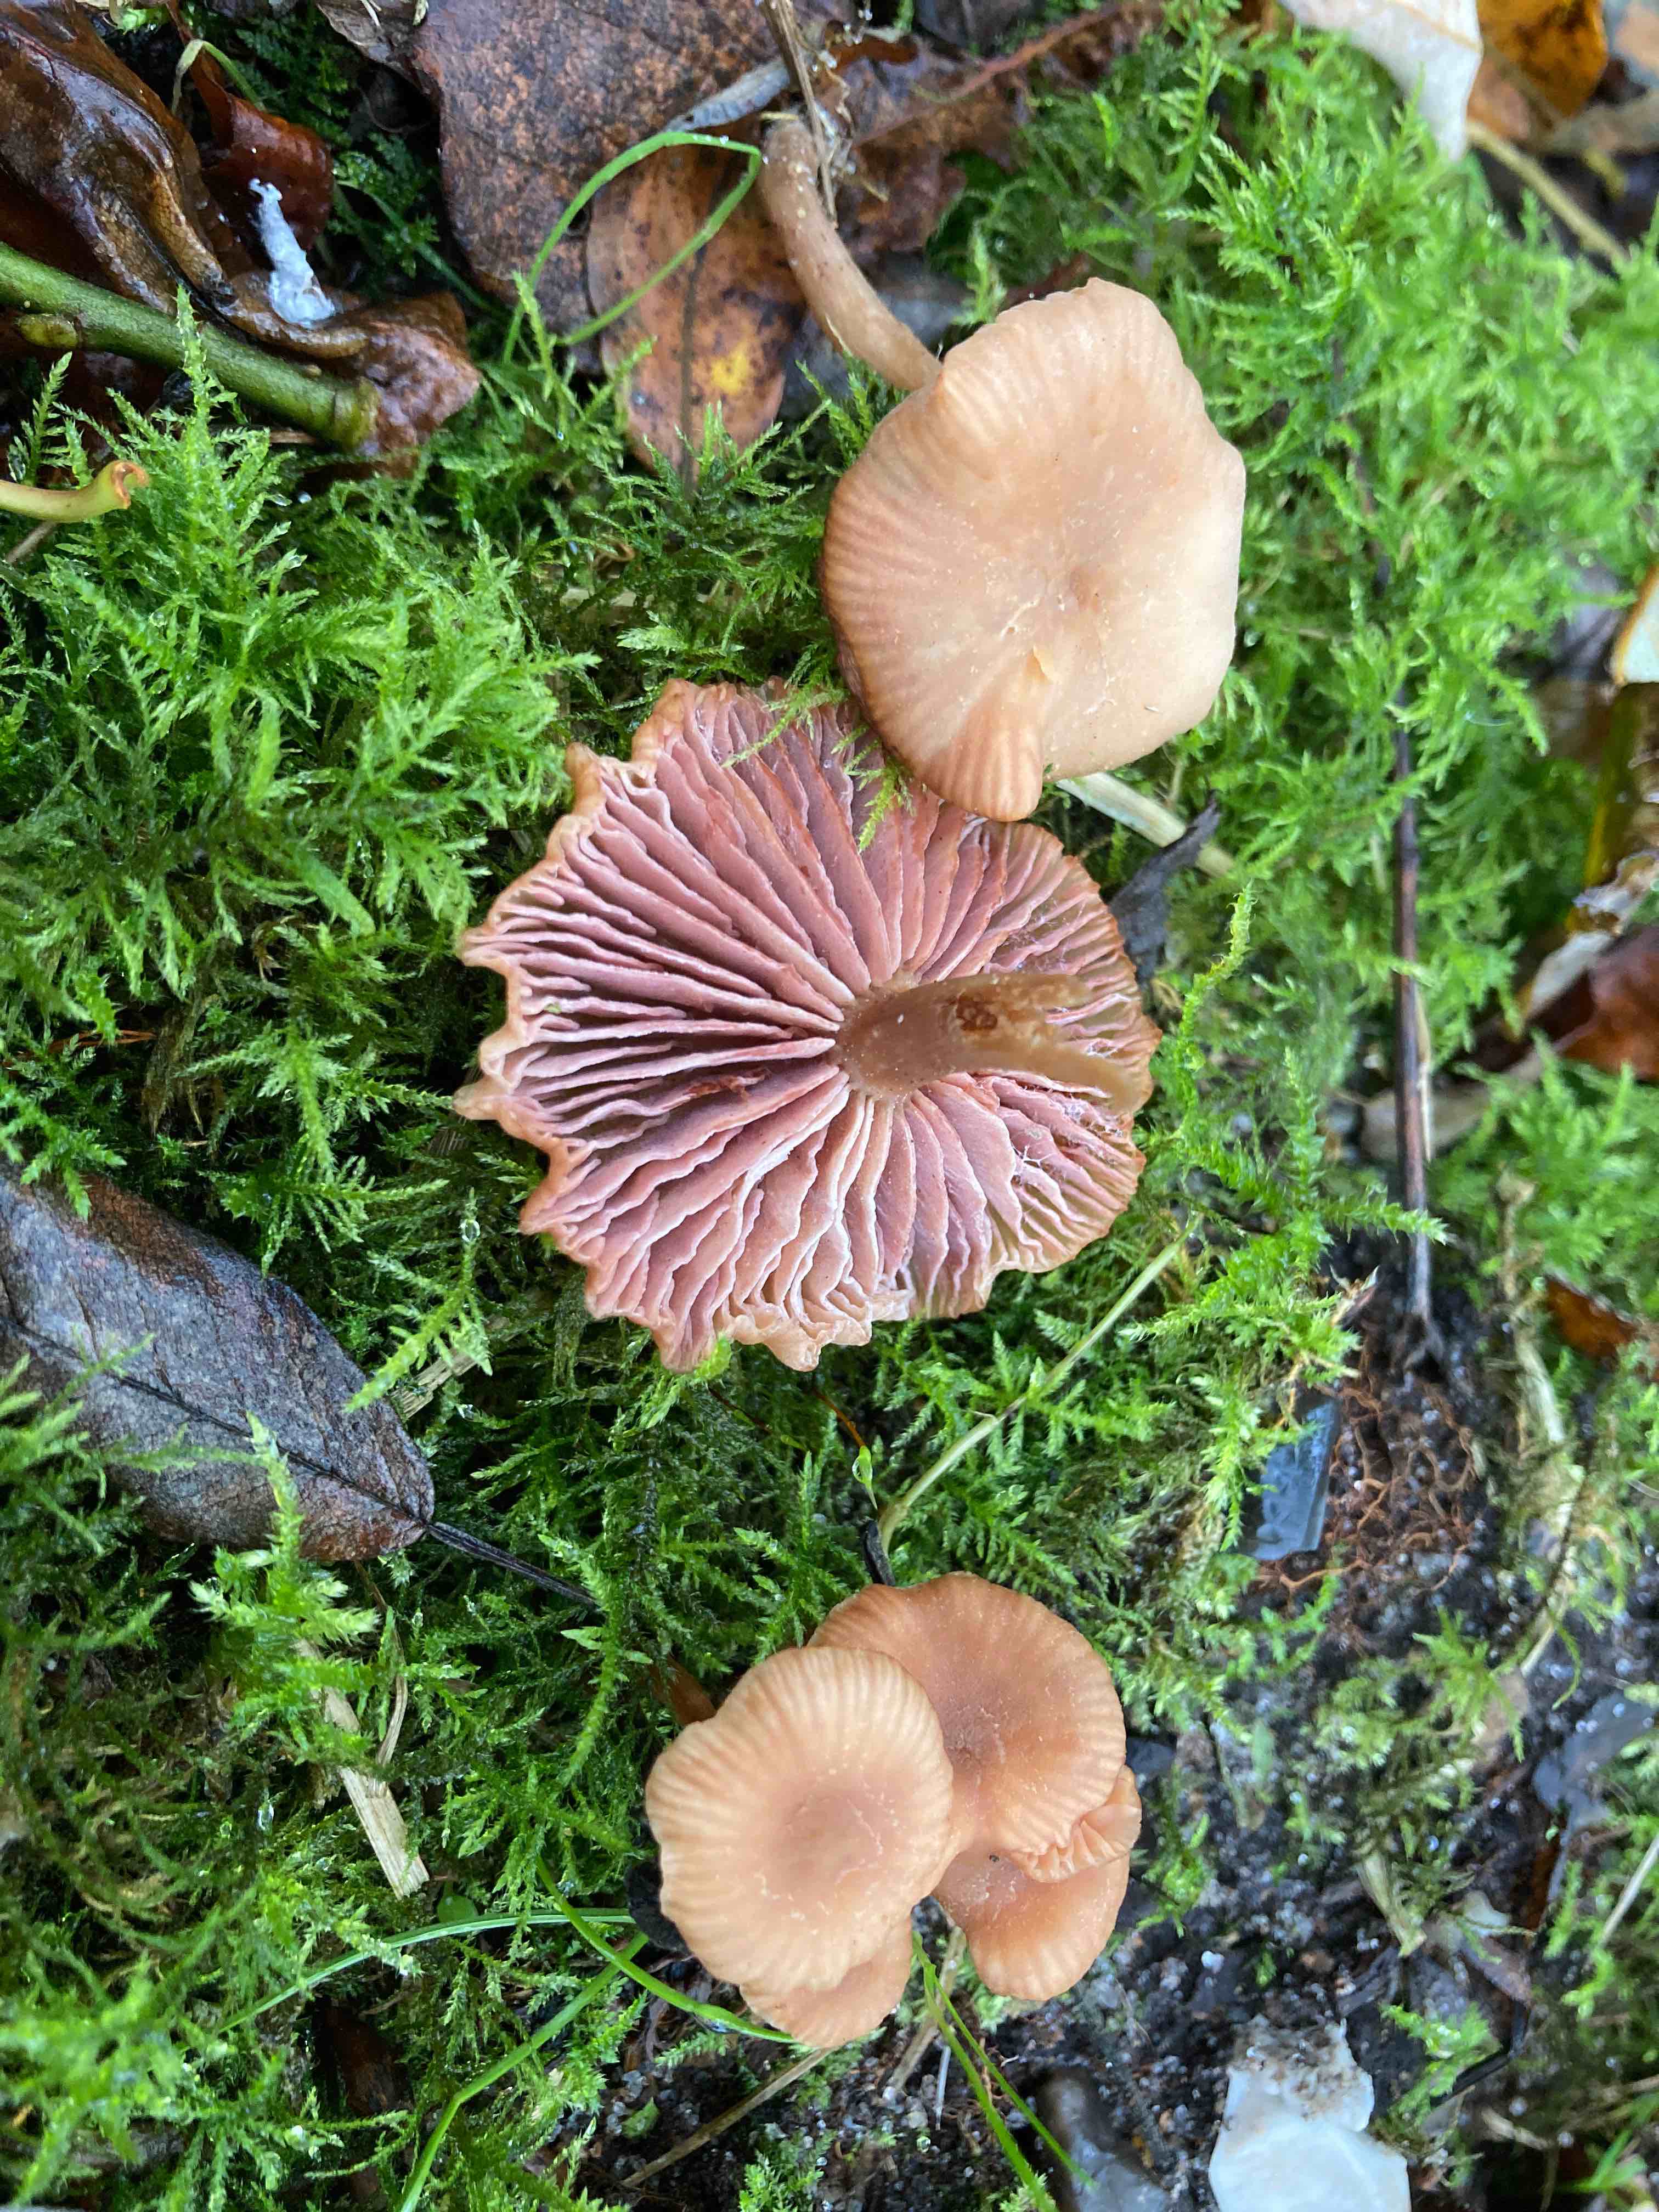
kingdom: Fungi
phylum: Basidiomycota
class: Agaricomycetes
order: Agaricales
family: Hydnangiaceae
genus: Laccaria
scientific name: Laccaria laccata
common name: rød ametysthat
